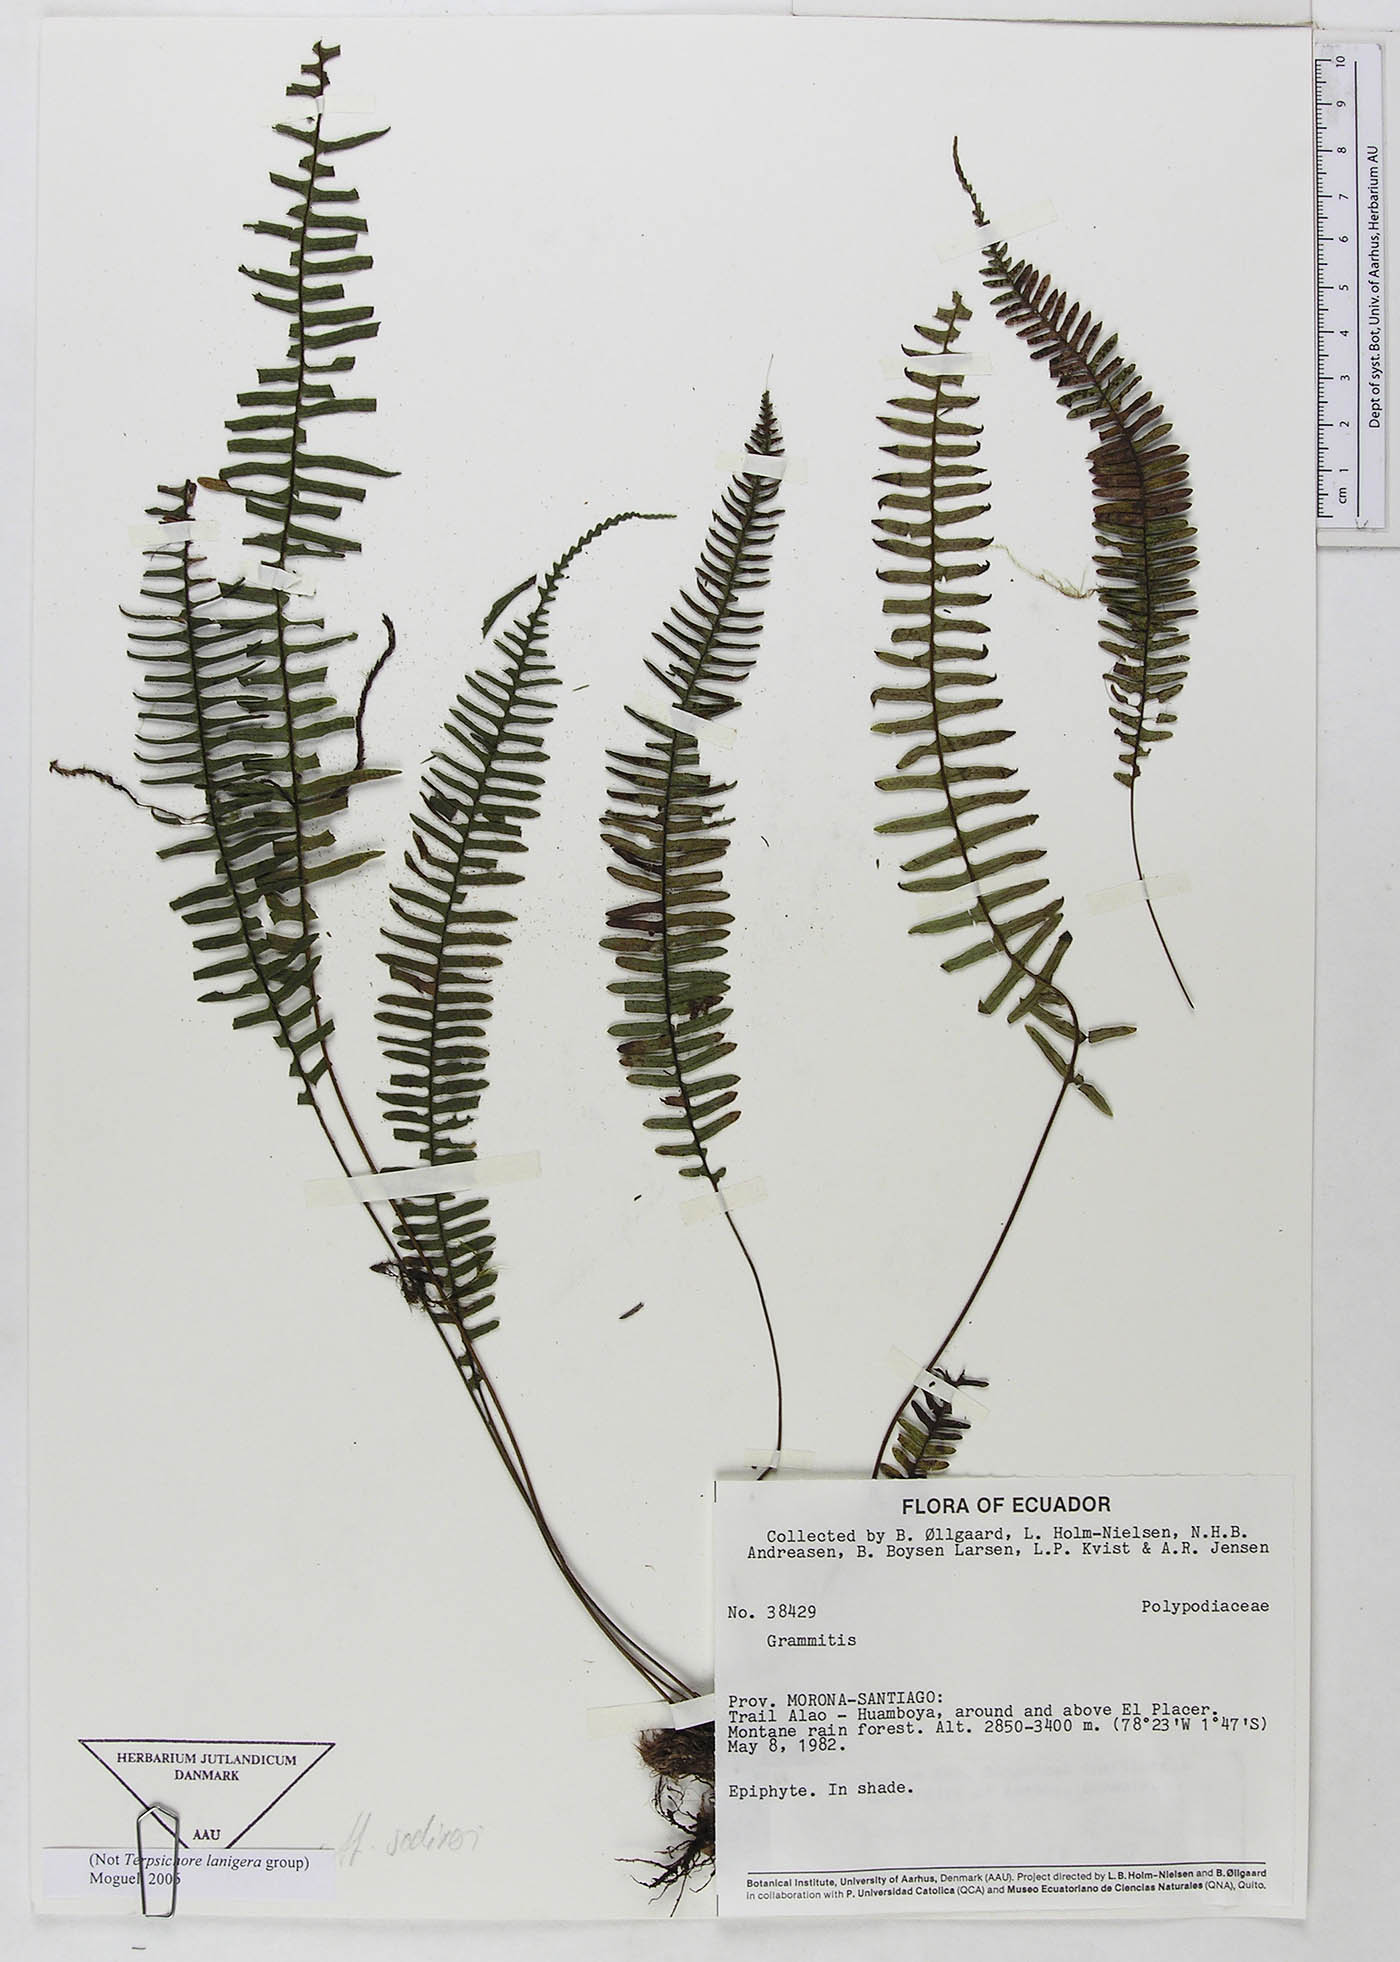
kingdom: Plantae
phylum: Tracheophyta
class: Polypodiopsida
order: Polypodiales
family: Polypodiaceae
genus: Melpomene
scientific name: Melpomene
